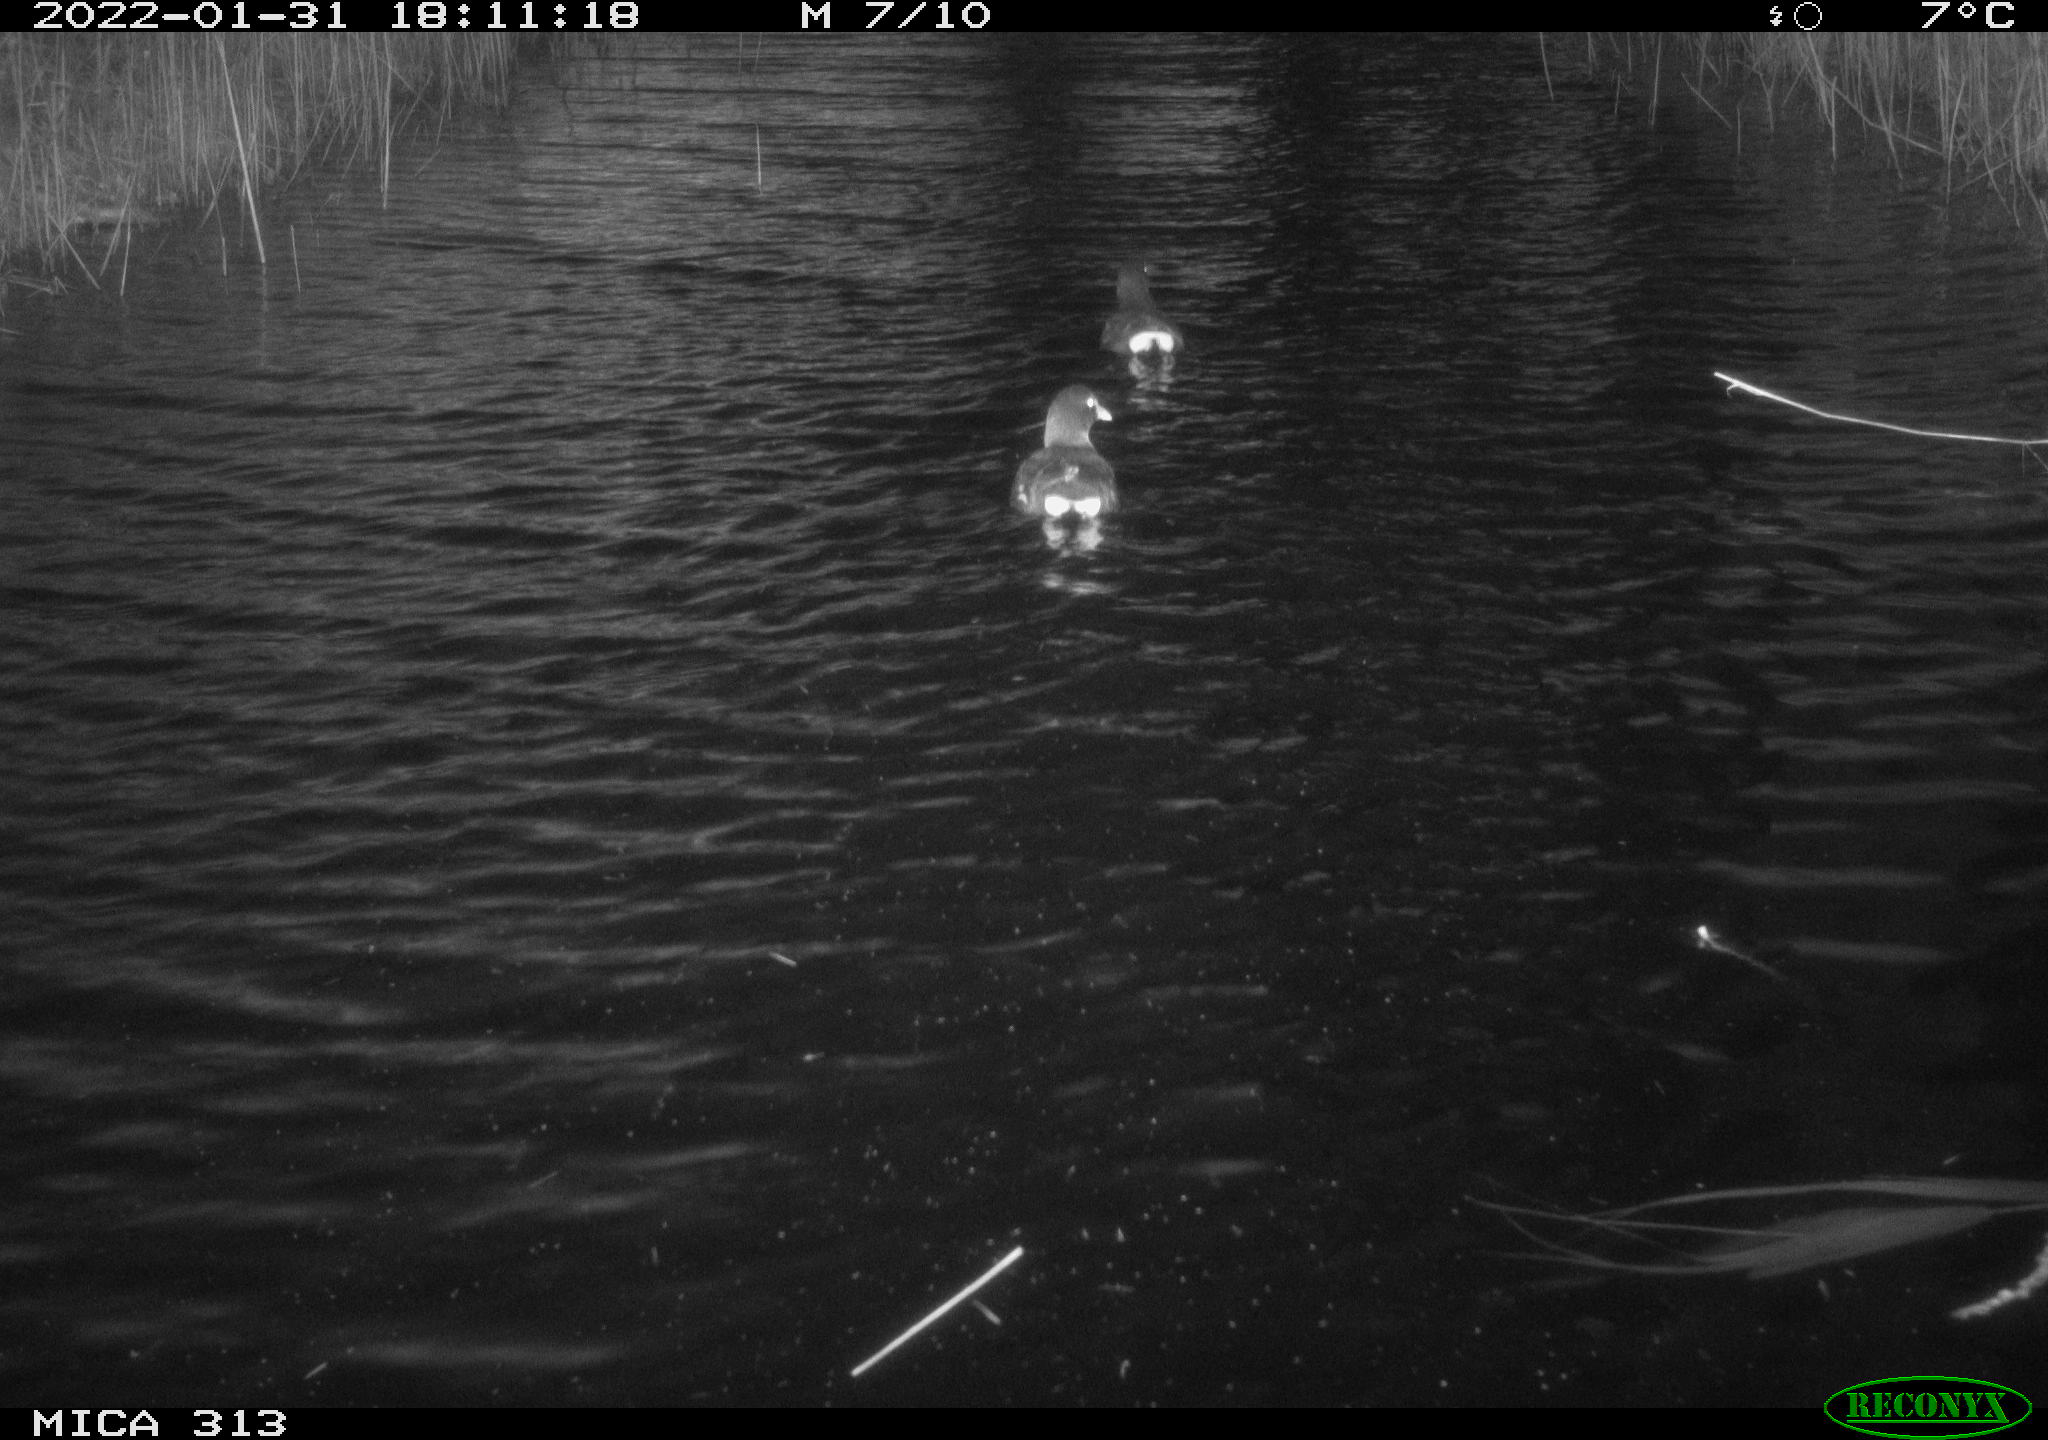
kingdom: Animalia
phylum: Chordata
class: Aves
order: Gruiformes
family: Rallidae
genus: Gallinula
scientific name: Gallinula chloropus
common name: Common moorhen
